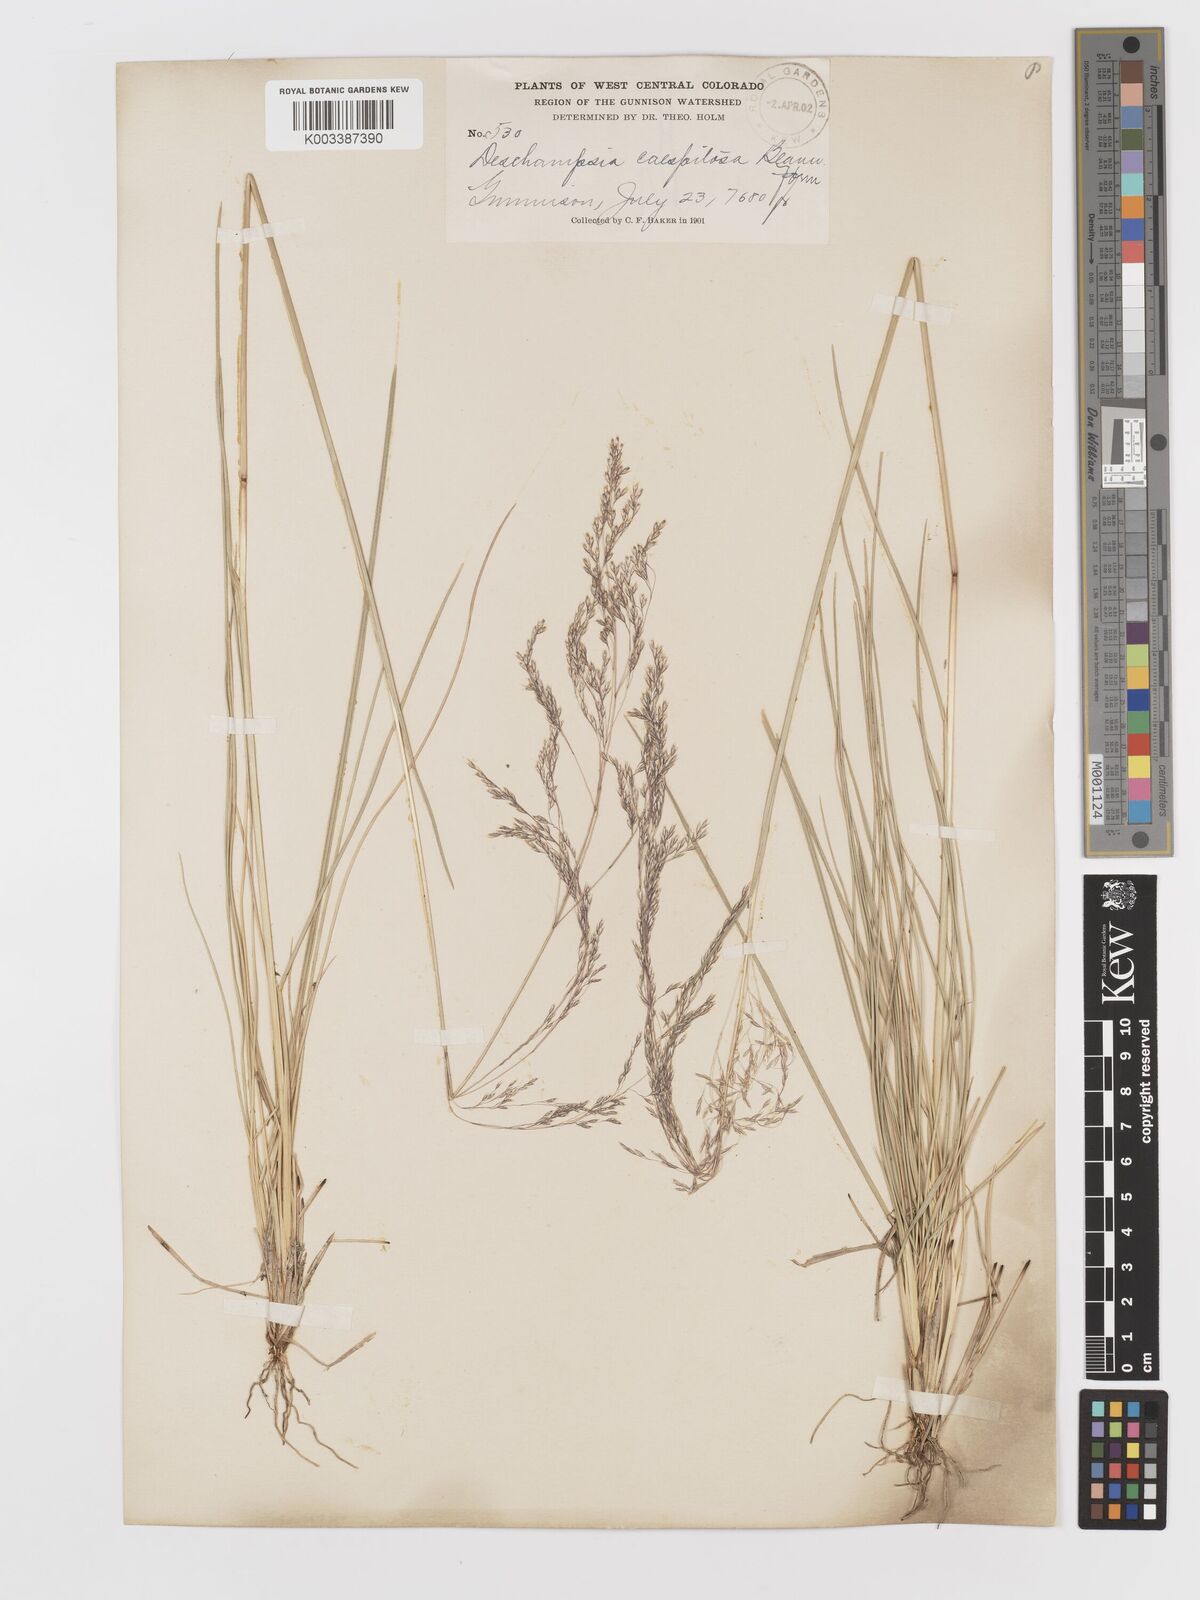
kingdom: Plantae
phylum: Tracheophyta
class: Liliopsida
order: Poales
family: Poaceae
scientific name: Poaceae
